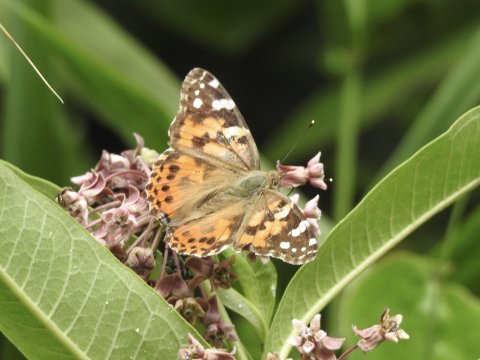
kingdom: Animalia
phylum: Arthropoda
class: Insecta
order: Lepidoptera
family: Nymphalidae
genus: Vanessa
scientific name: Vanessa cardui
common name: Painted Lady
